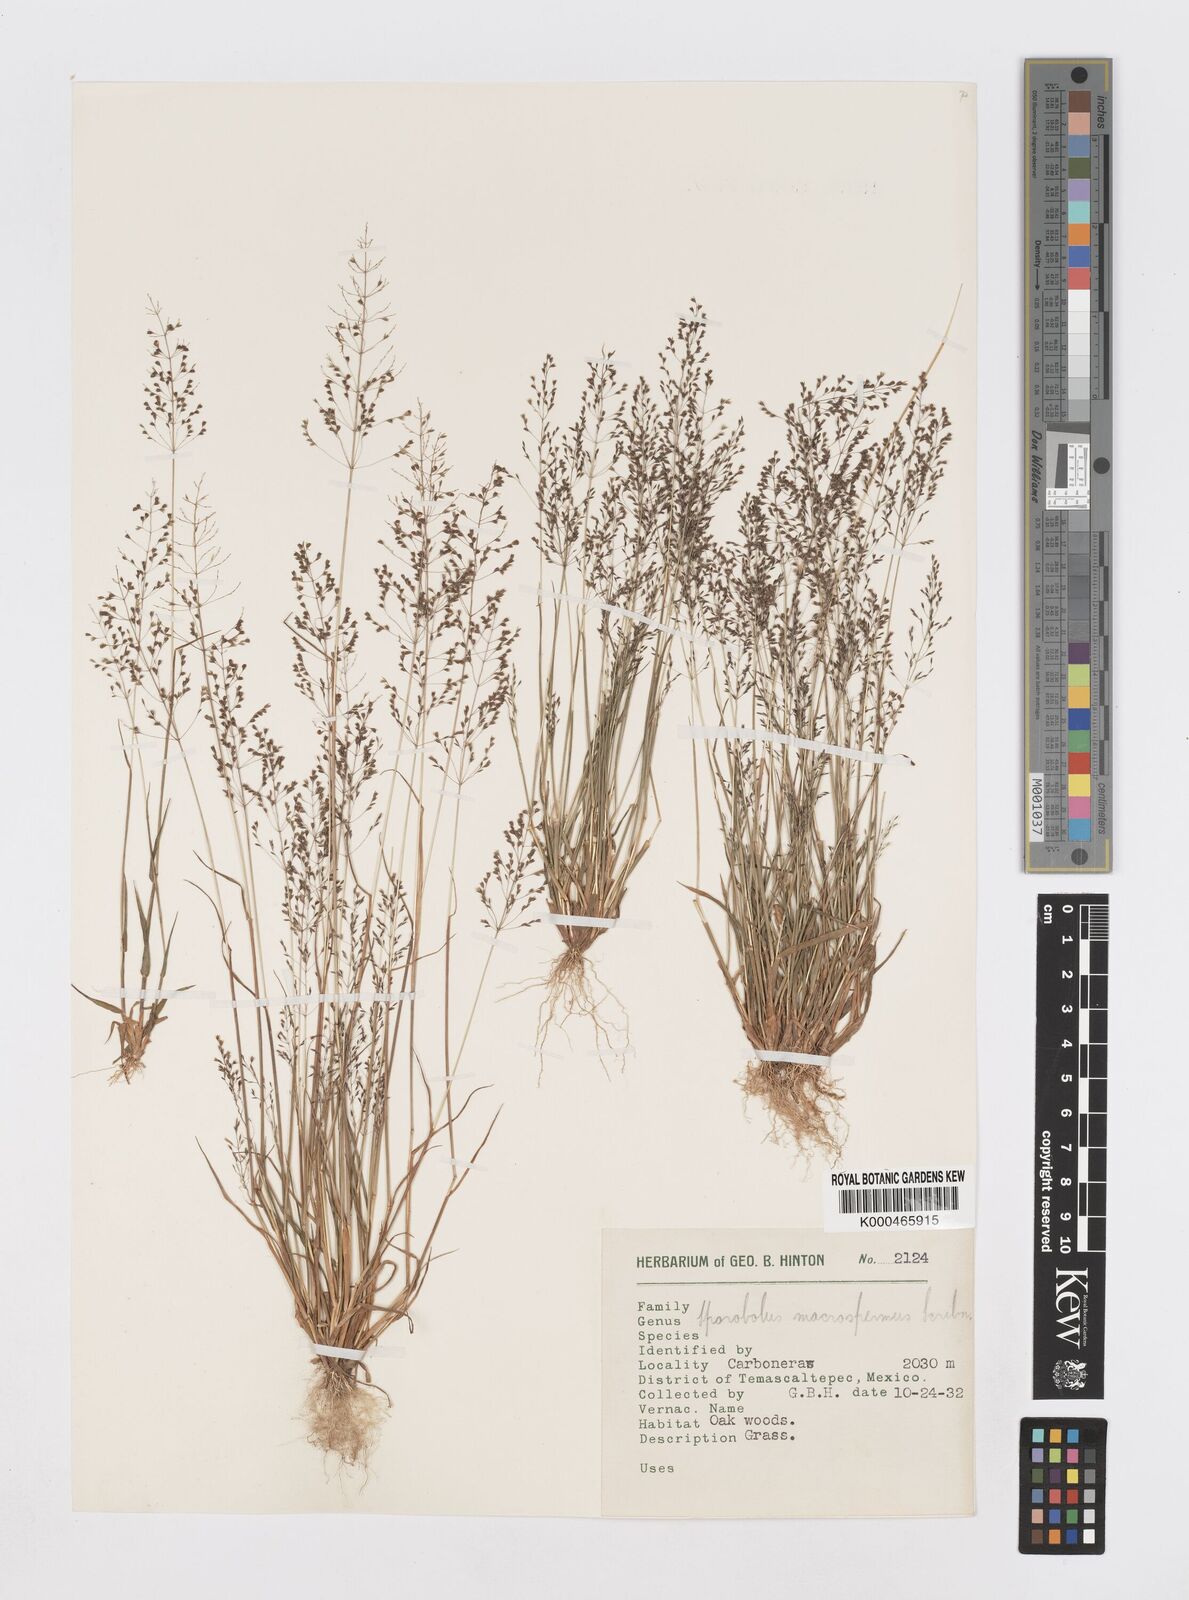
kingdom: Plantae
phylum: Tracheophyta
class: Liliopsida
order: Poales
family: Poaceae
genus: Sporobolus
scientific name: Sporobolus paniculatus
